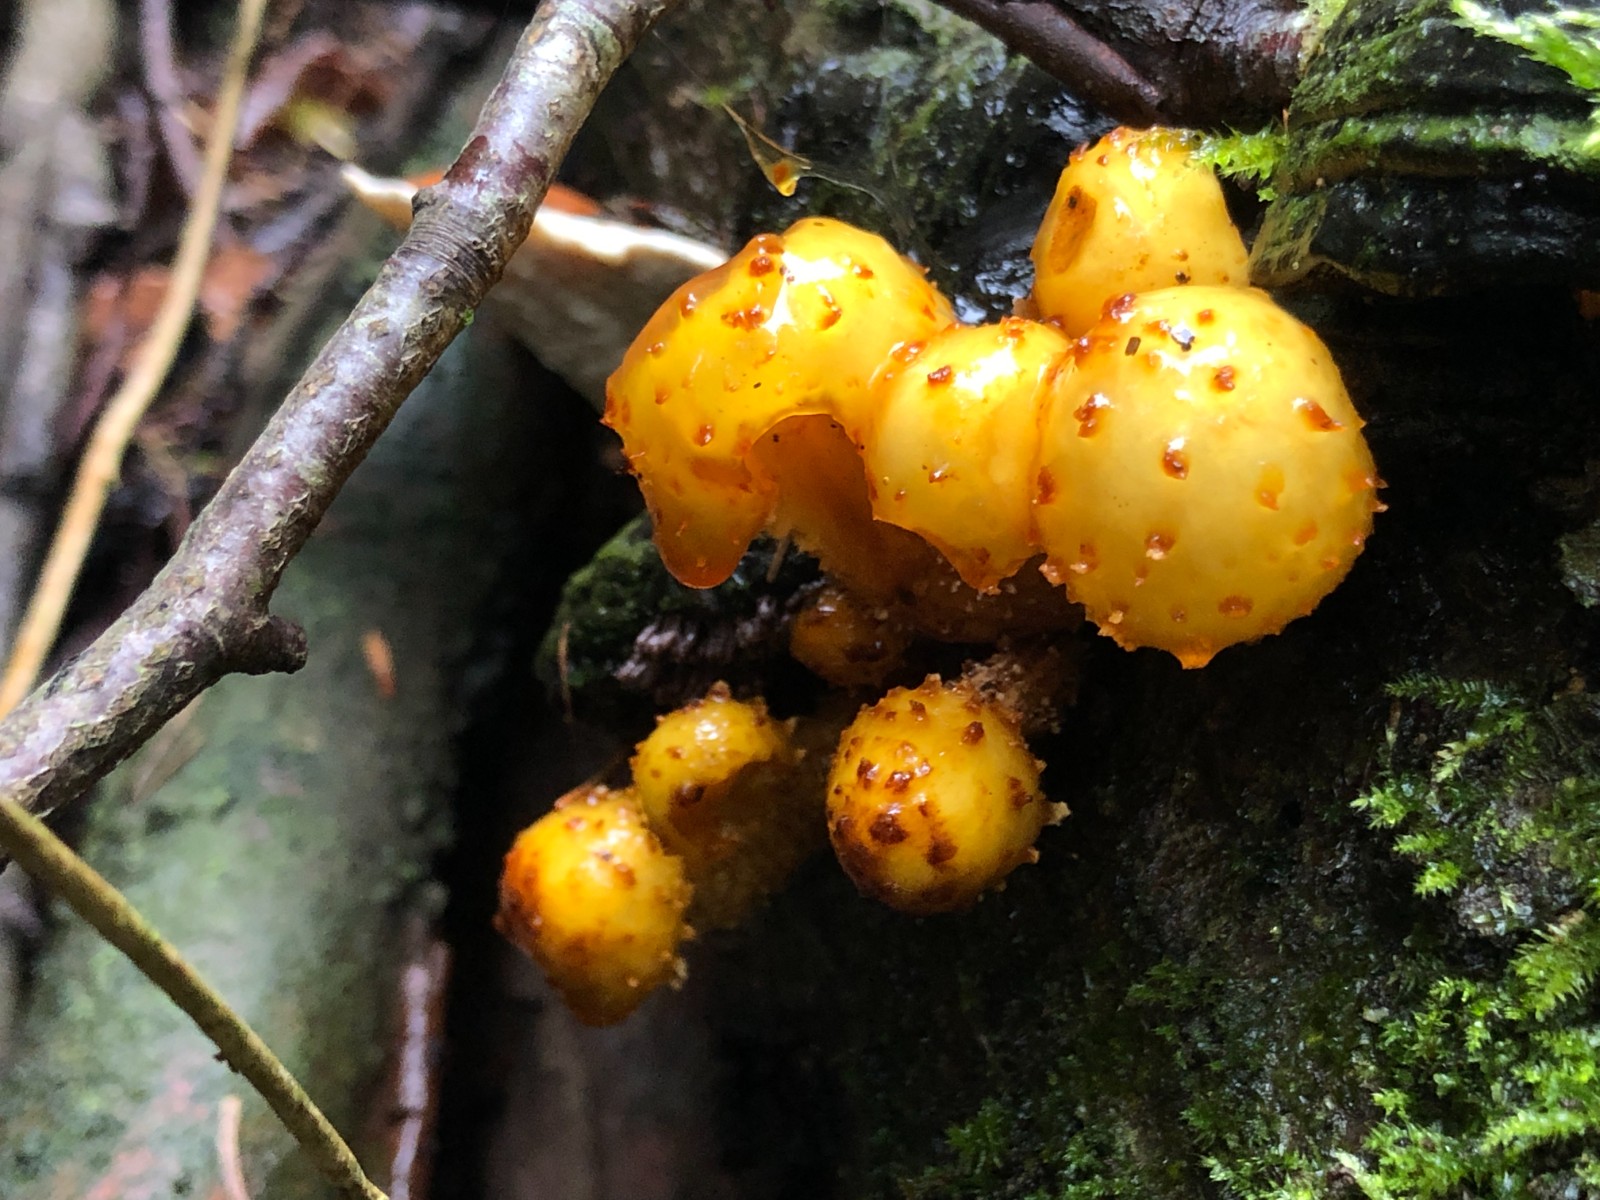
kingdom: Fungi
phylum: Basidiomycota
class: Agaricomycetes
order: Agaricales
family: Strophariaceae
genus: Pholiota
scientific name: Pholiota adiposa
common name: højtsiddende skælhat
